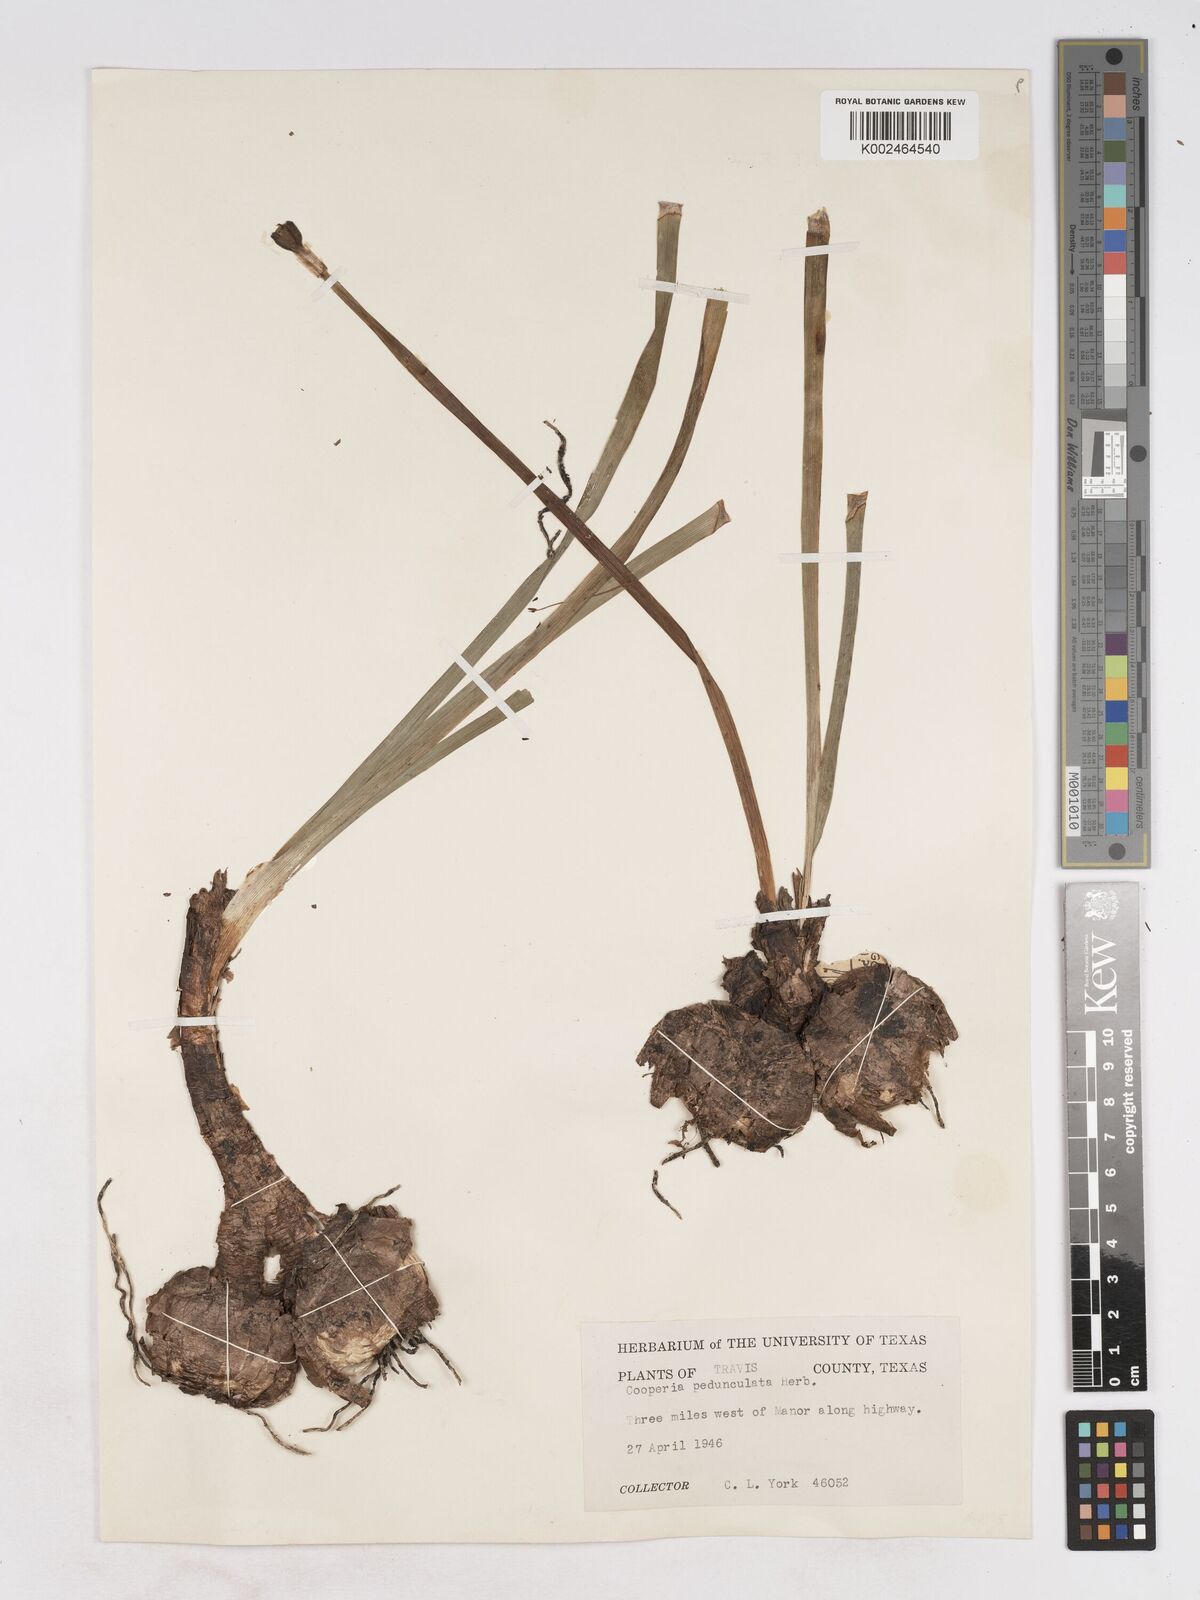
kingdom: Plantae
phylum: Tracheophyta
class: Liliopsida
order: Asparagales
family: Amaryllidaceae
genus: Zephyranthes
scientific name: Zephyranthes drummondii
